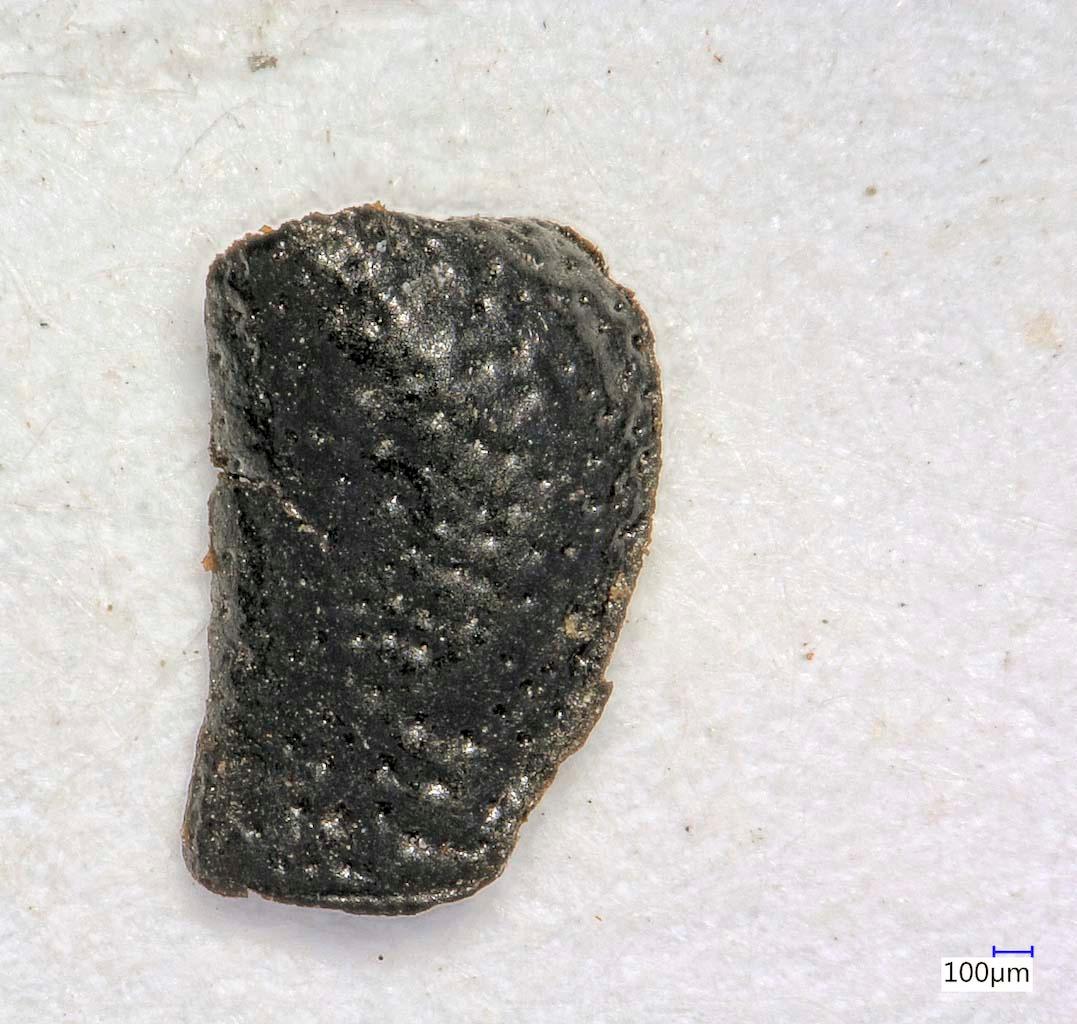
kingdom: Animalia
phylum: Arthropoda
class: Insecta
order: Coleoptera
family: Carabidae
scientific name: Carabidae
